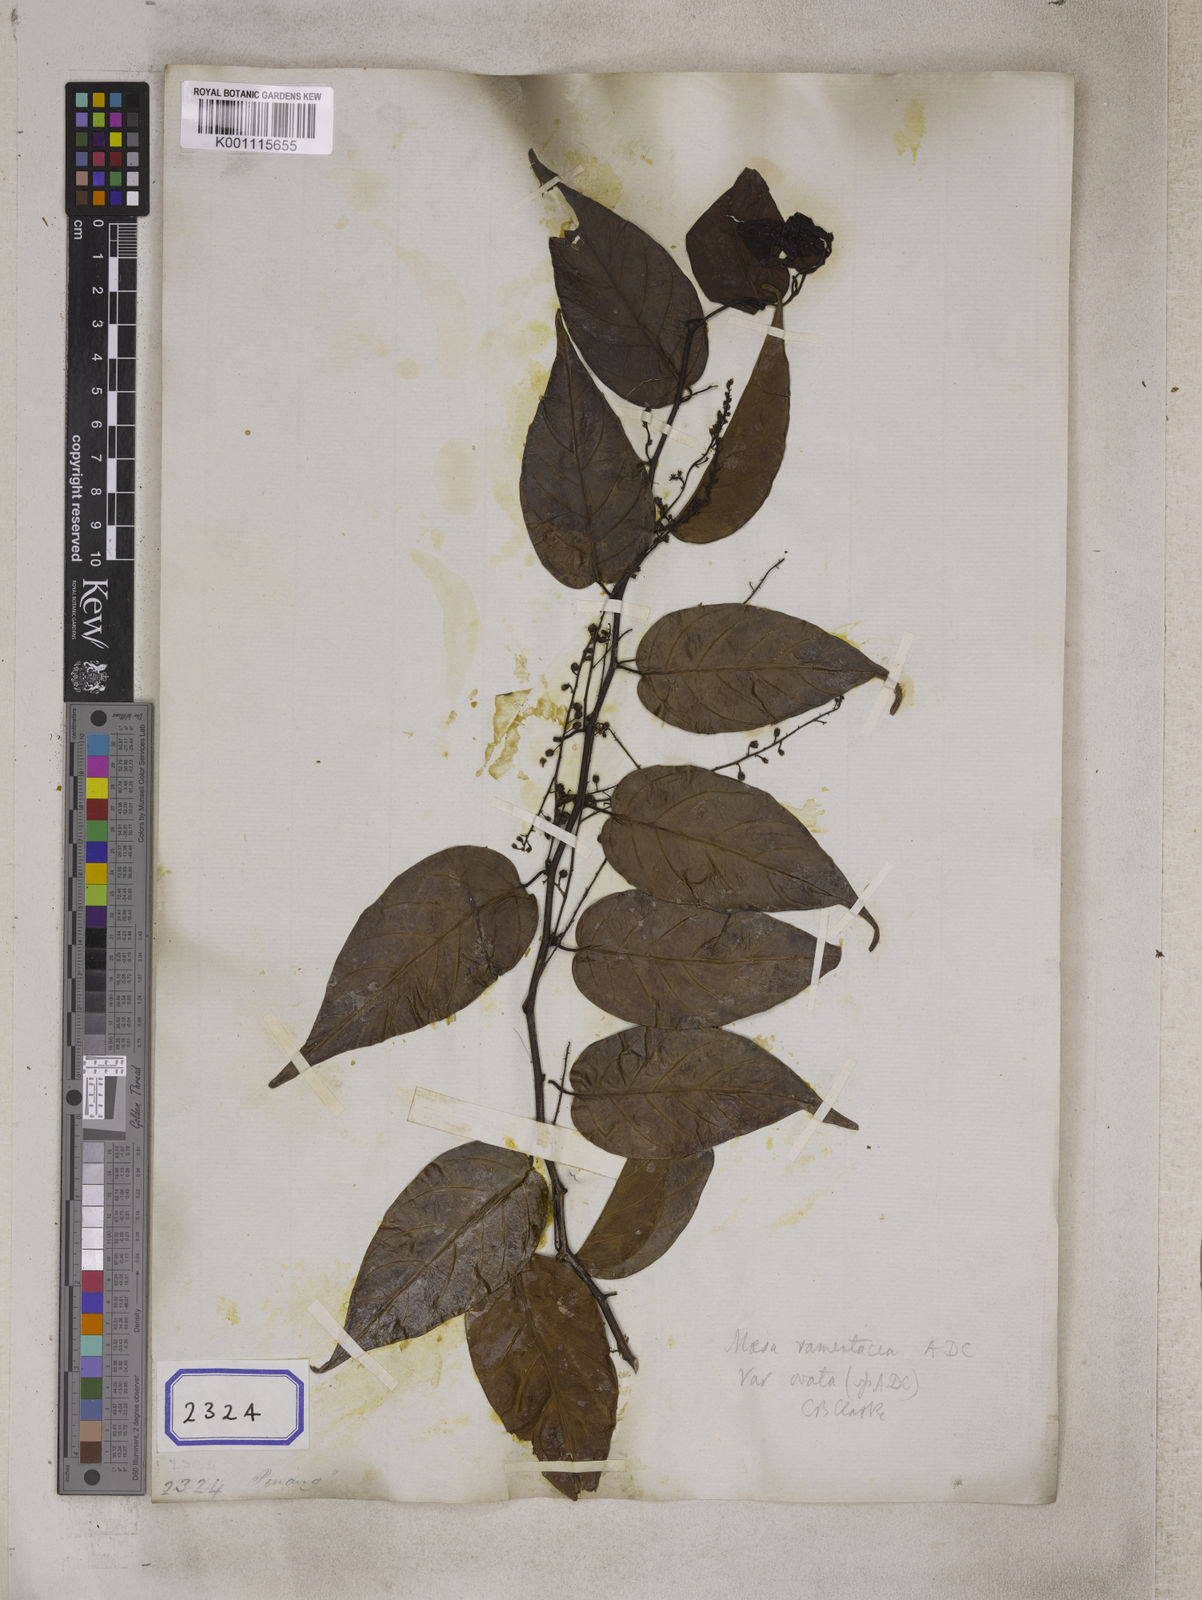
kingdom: Plantae
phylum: Tracheophyta
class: Magnoliopsida
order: Ericales
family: Primulaceae
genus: Maesa
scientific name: Maesa
